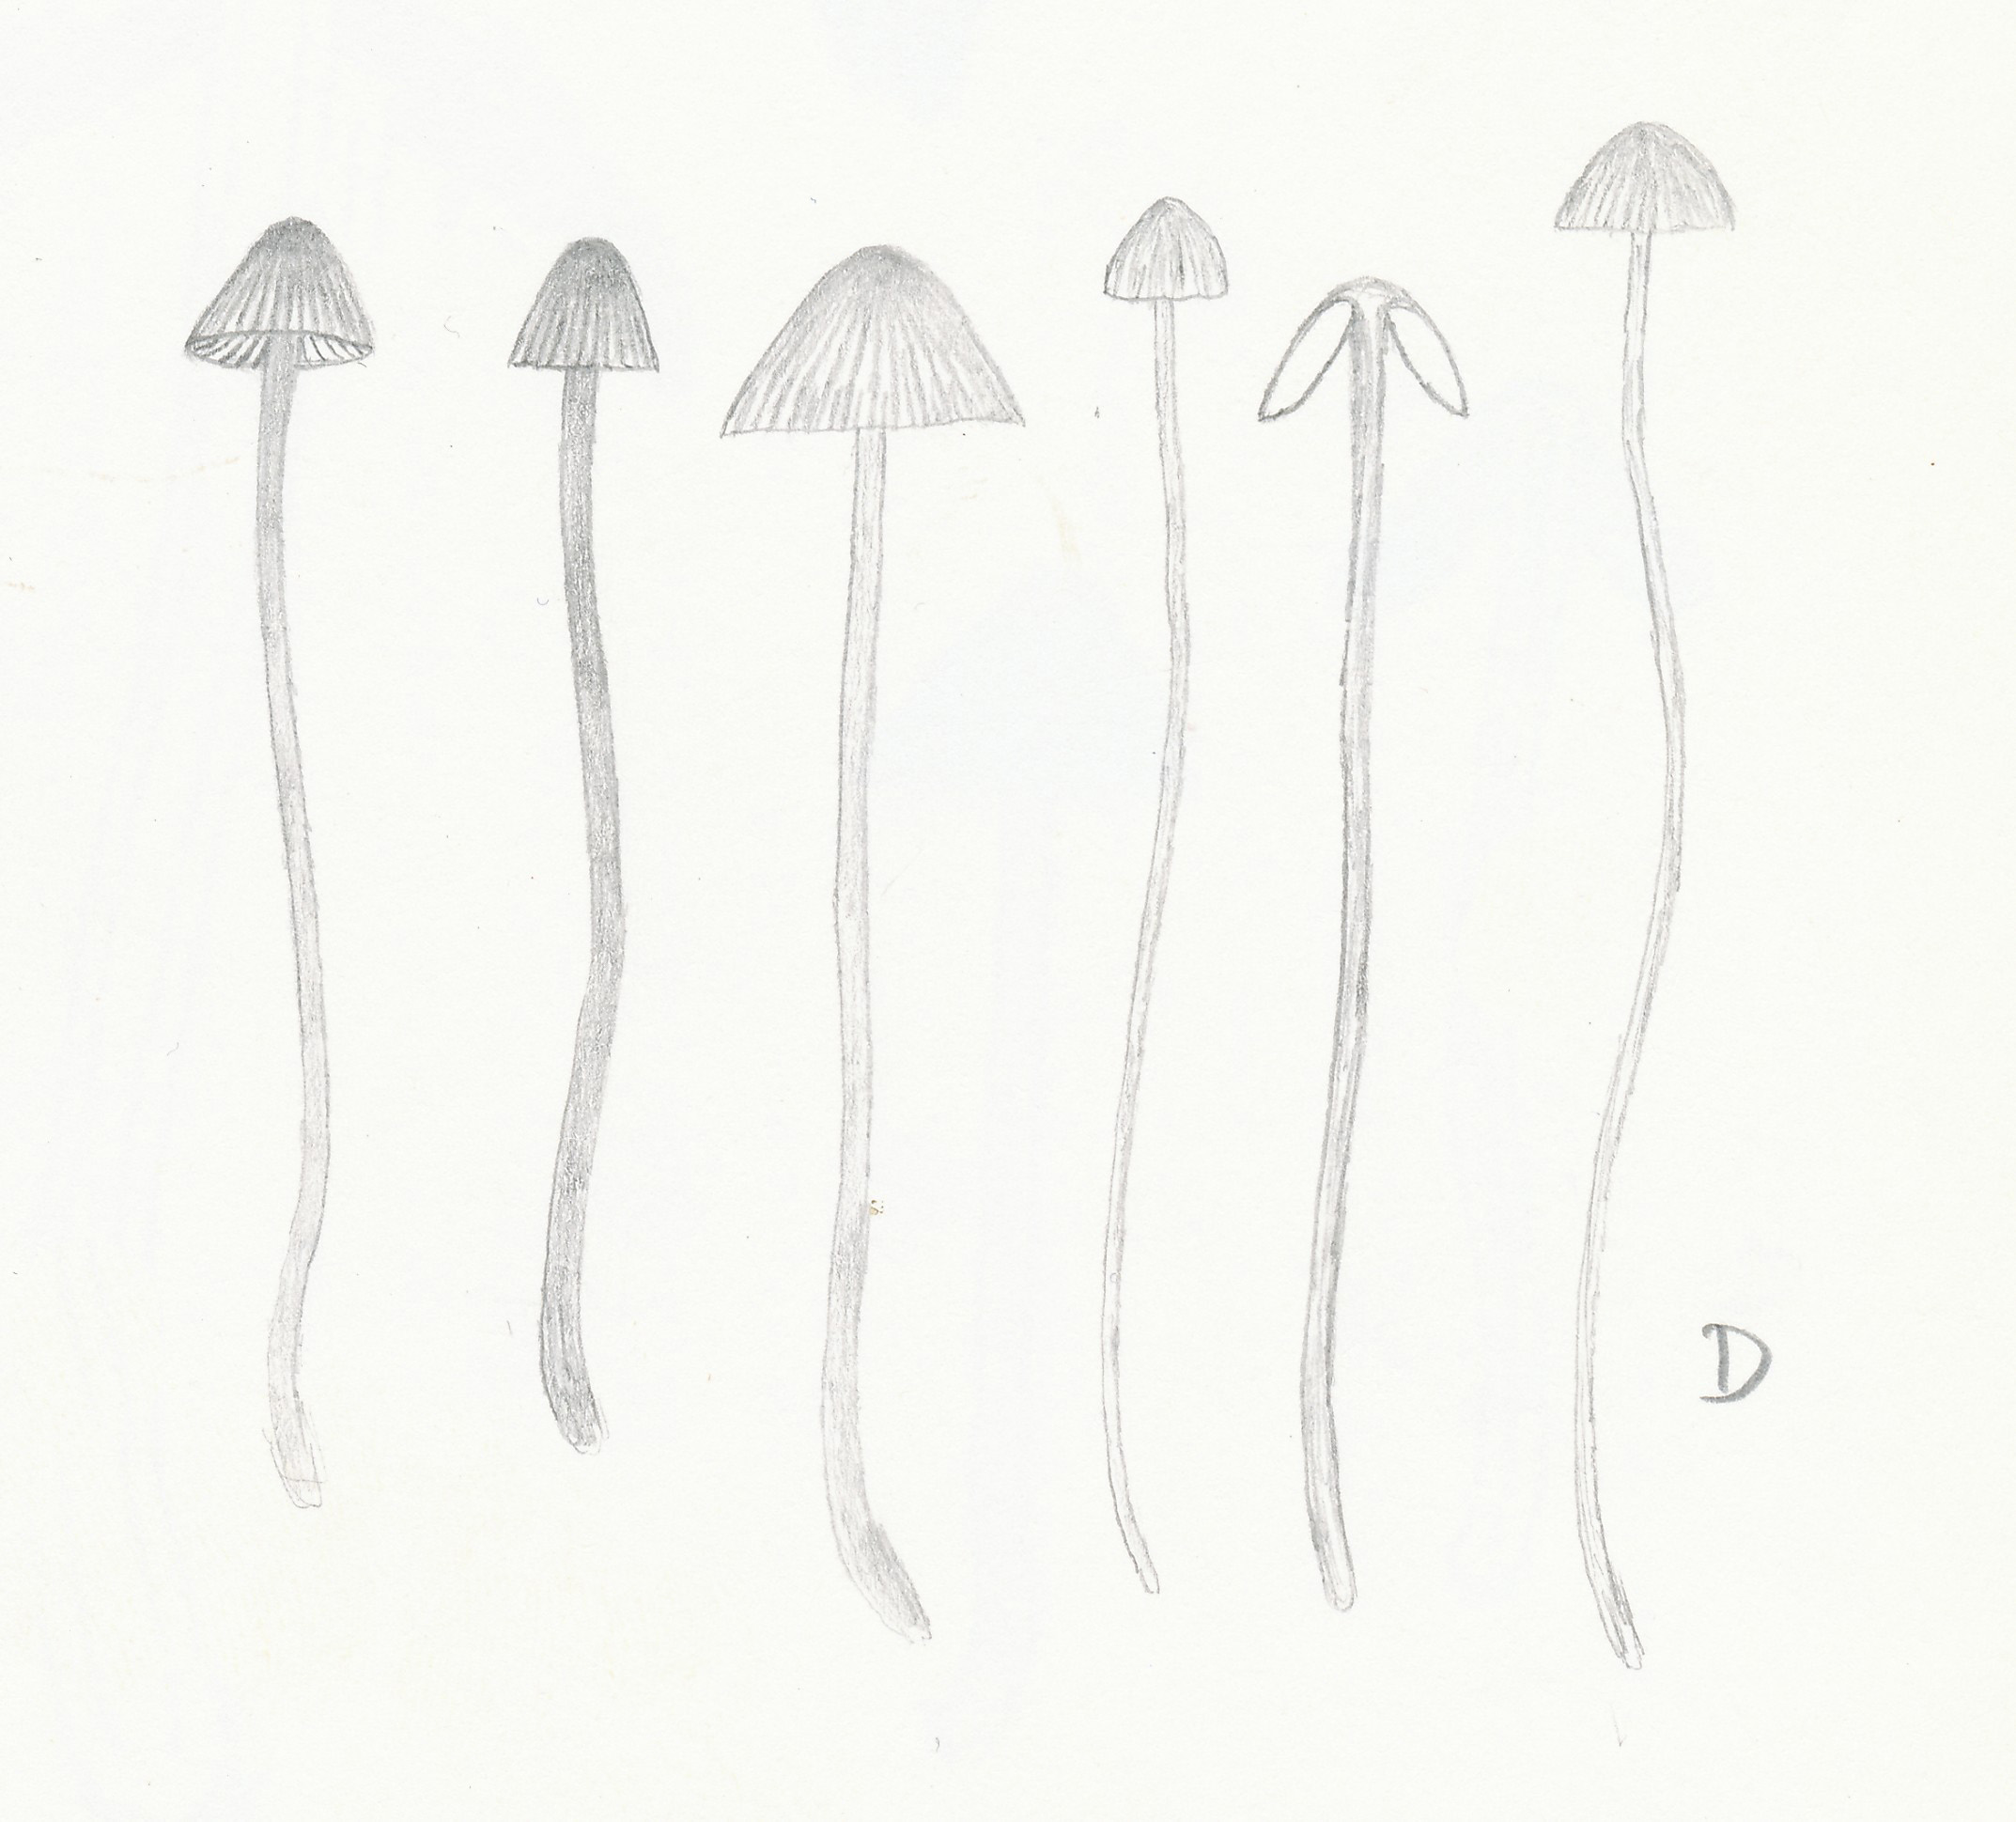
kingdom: Fungi
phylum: Basidiomycota
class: Agaricomycetes
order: Agaricales
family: Mycenaceae
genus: Mycena
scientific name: Mycena sanguinolenta
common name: rødmælket huesvamp
